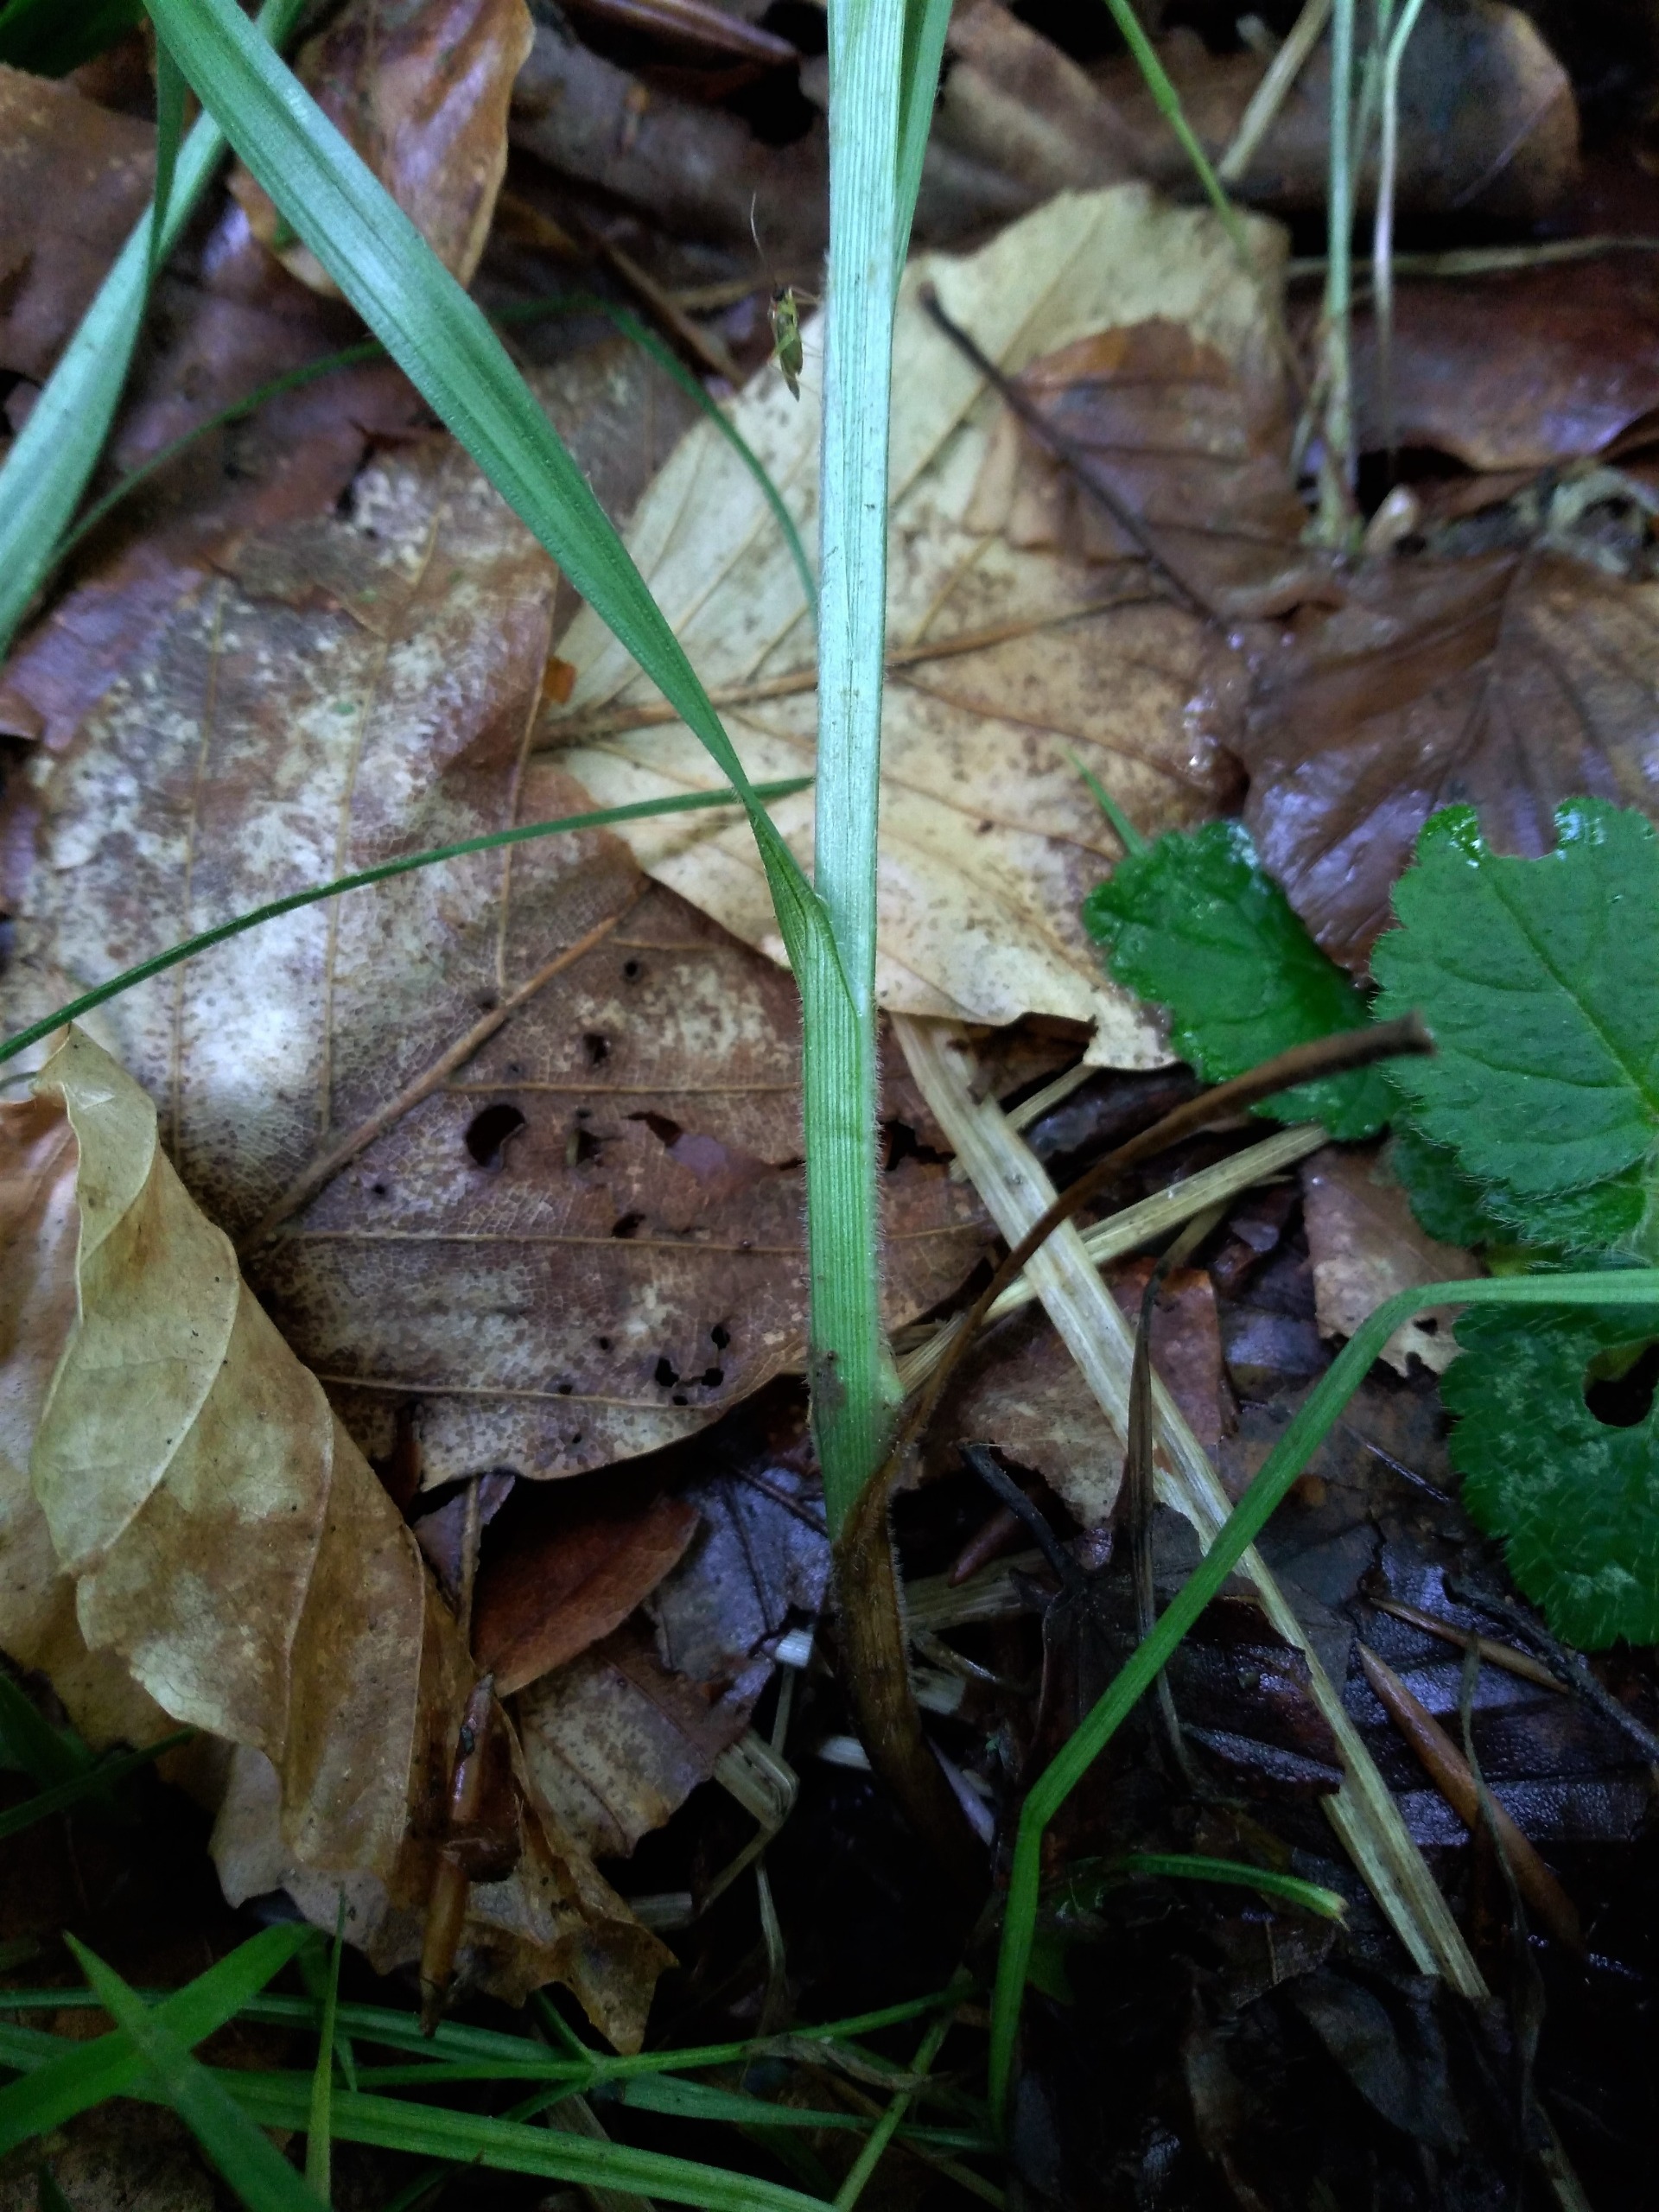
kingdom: Plantae
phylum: Tracheophyta
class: Liliopsida
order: Poales
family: Cyperaceae
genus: Carex
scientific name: Carex pallescens
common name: Bleg star
